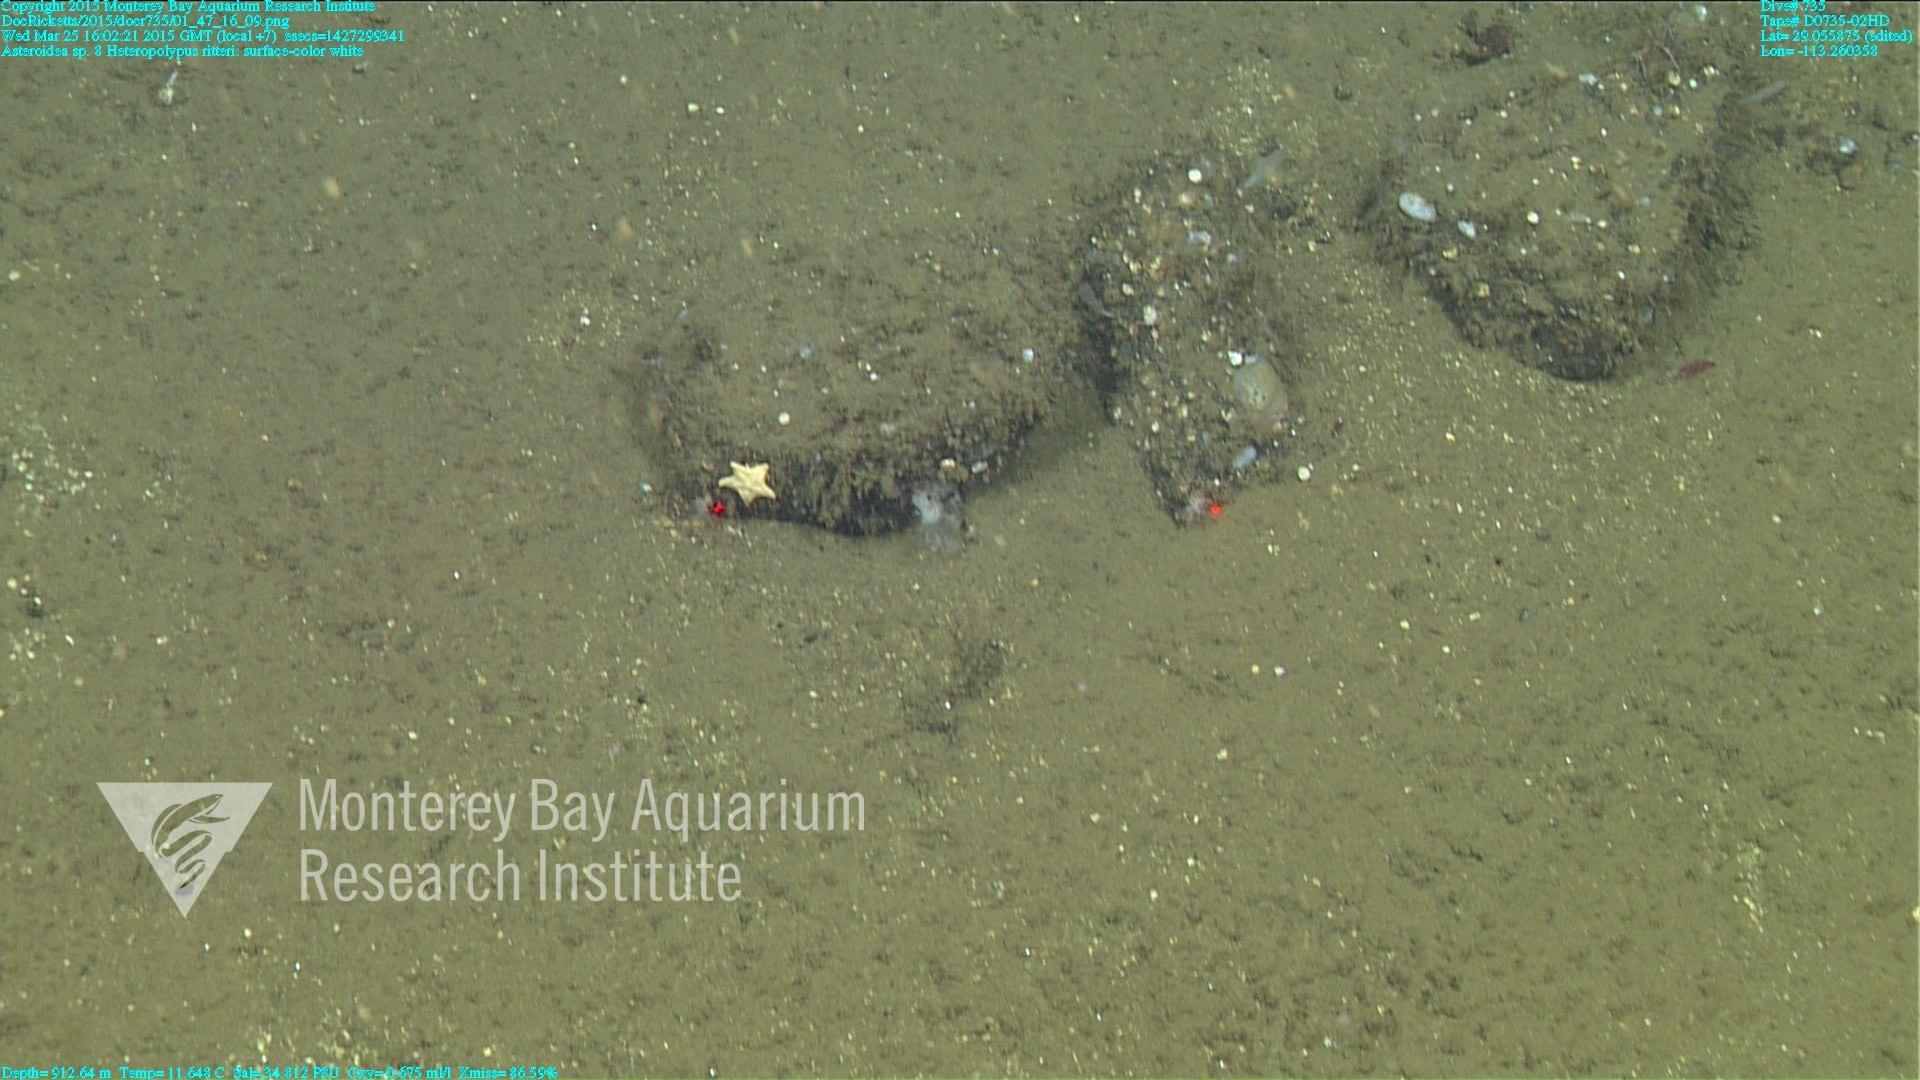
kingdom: Animalia
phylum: Cnidaria
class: Anthozoa
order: Scleralcyonacea
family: Coralliidae
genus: Heteropolypus
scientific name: Heteropolypus ritteri
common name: Ritter's soft coral
